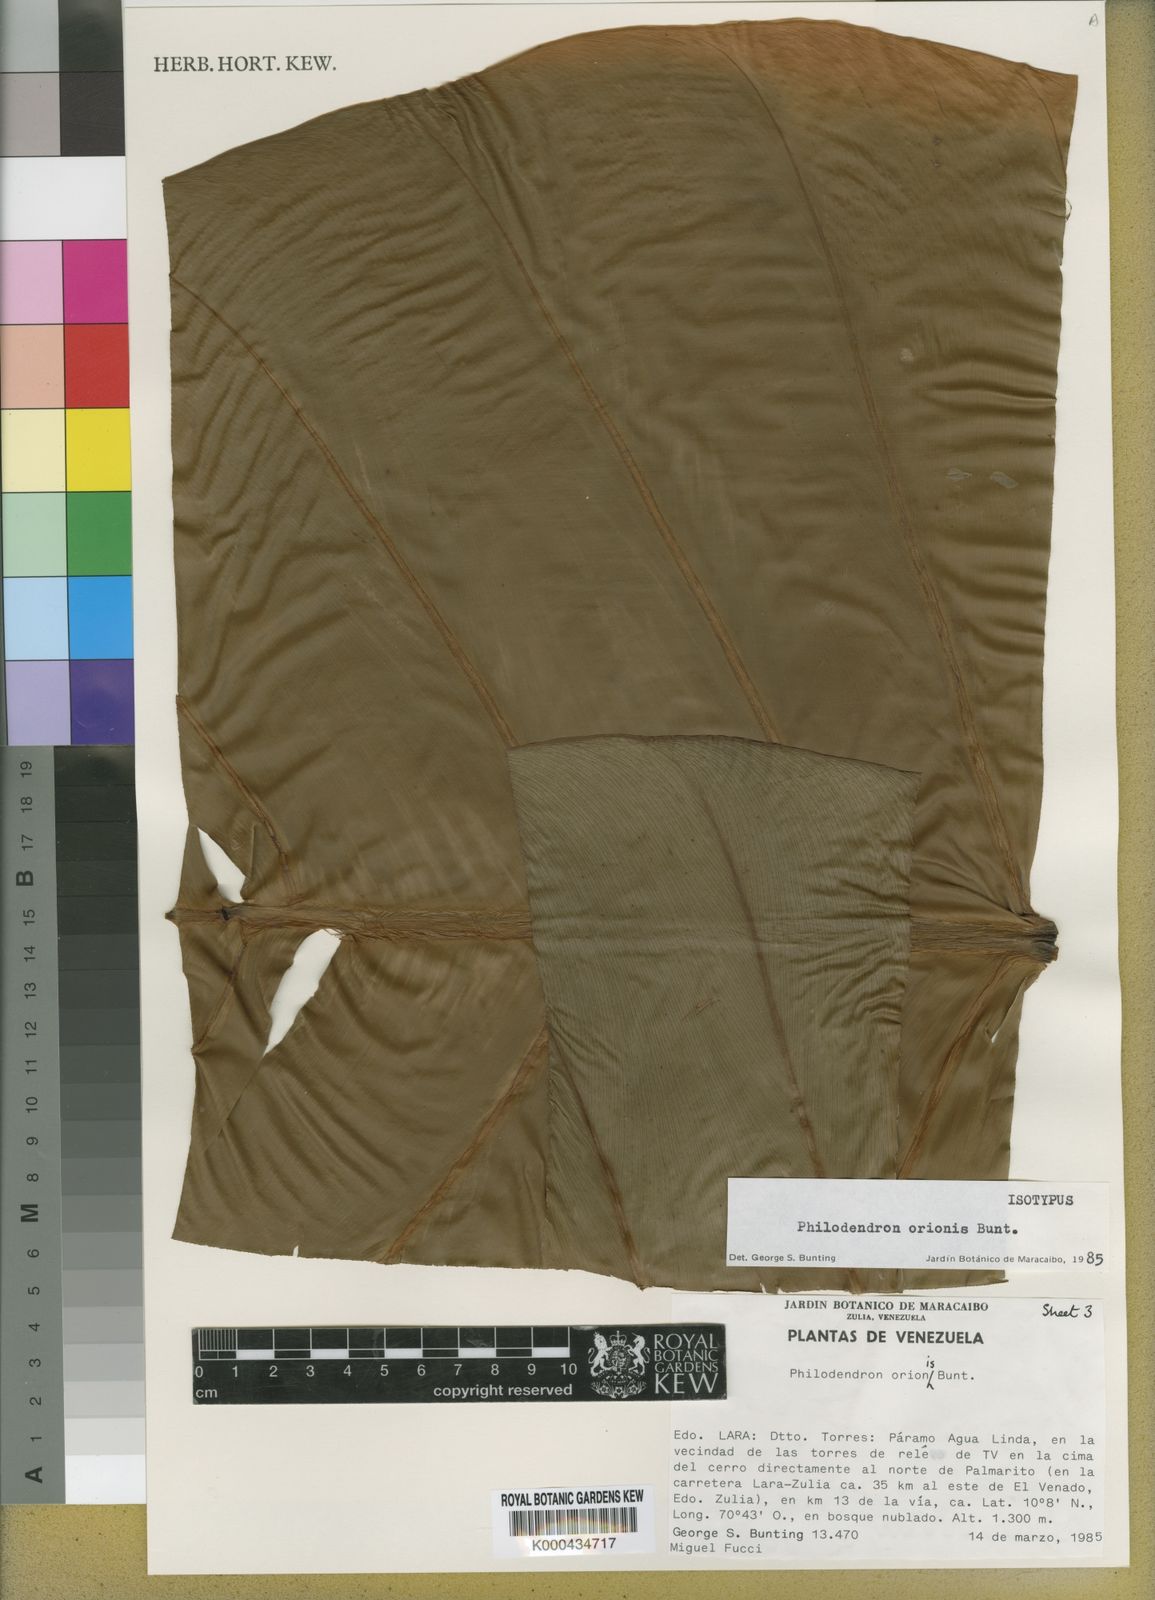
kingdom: Plantae
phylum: Tracheophyta
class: Liliopsida
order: Alismatales
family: Araceae
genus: Philodendron
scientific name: Philodendron orionis
